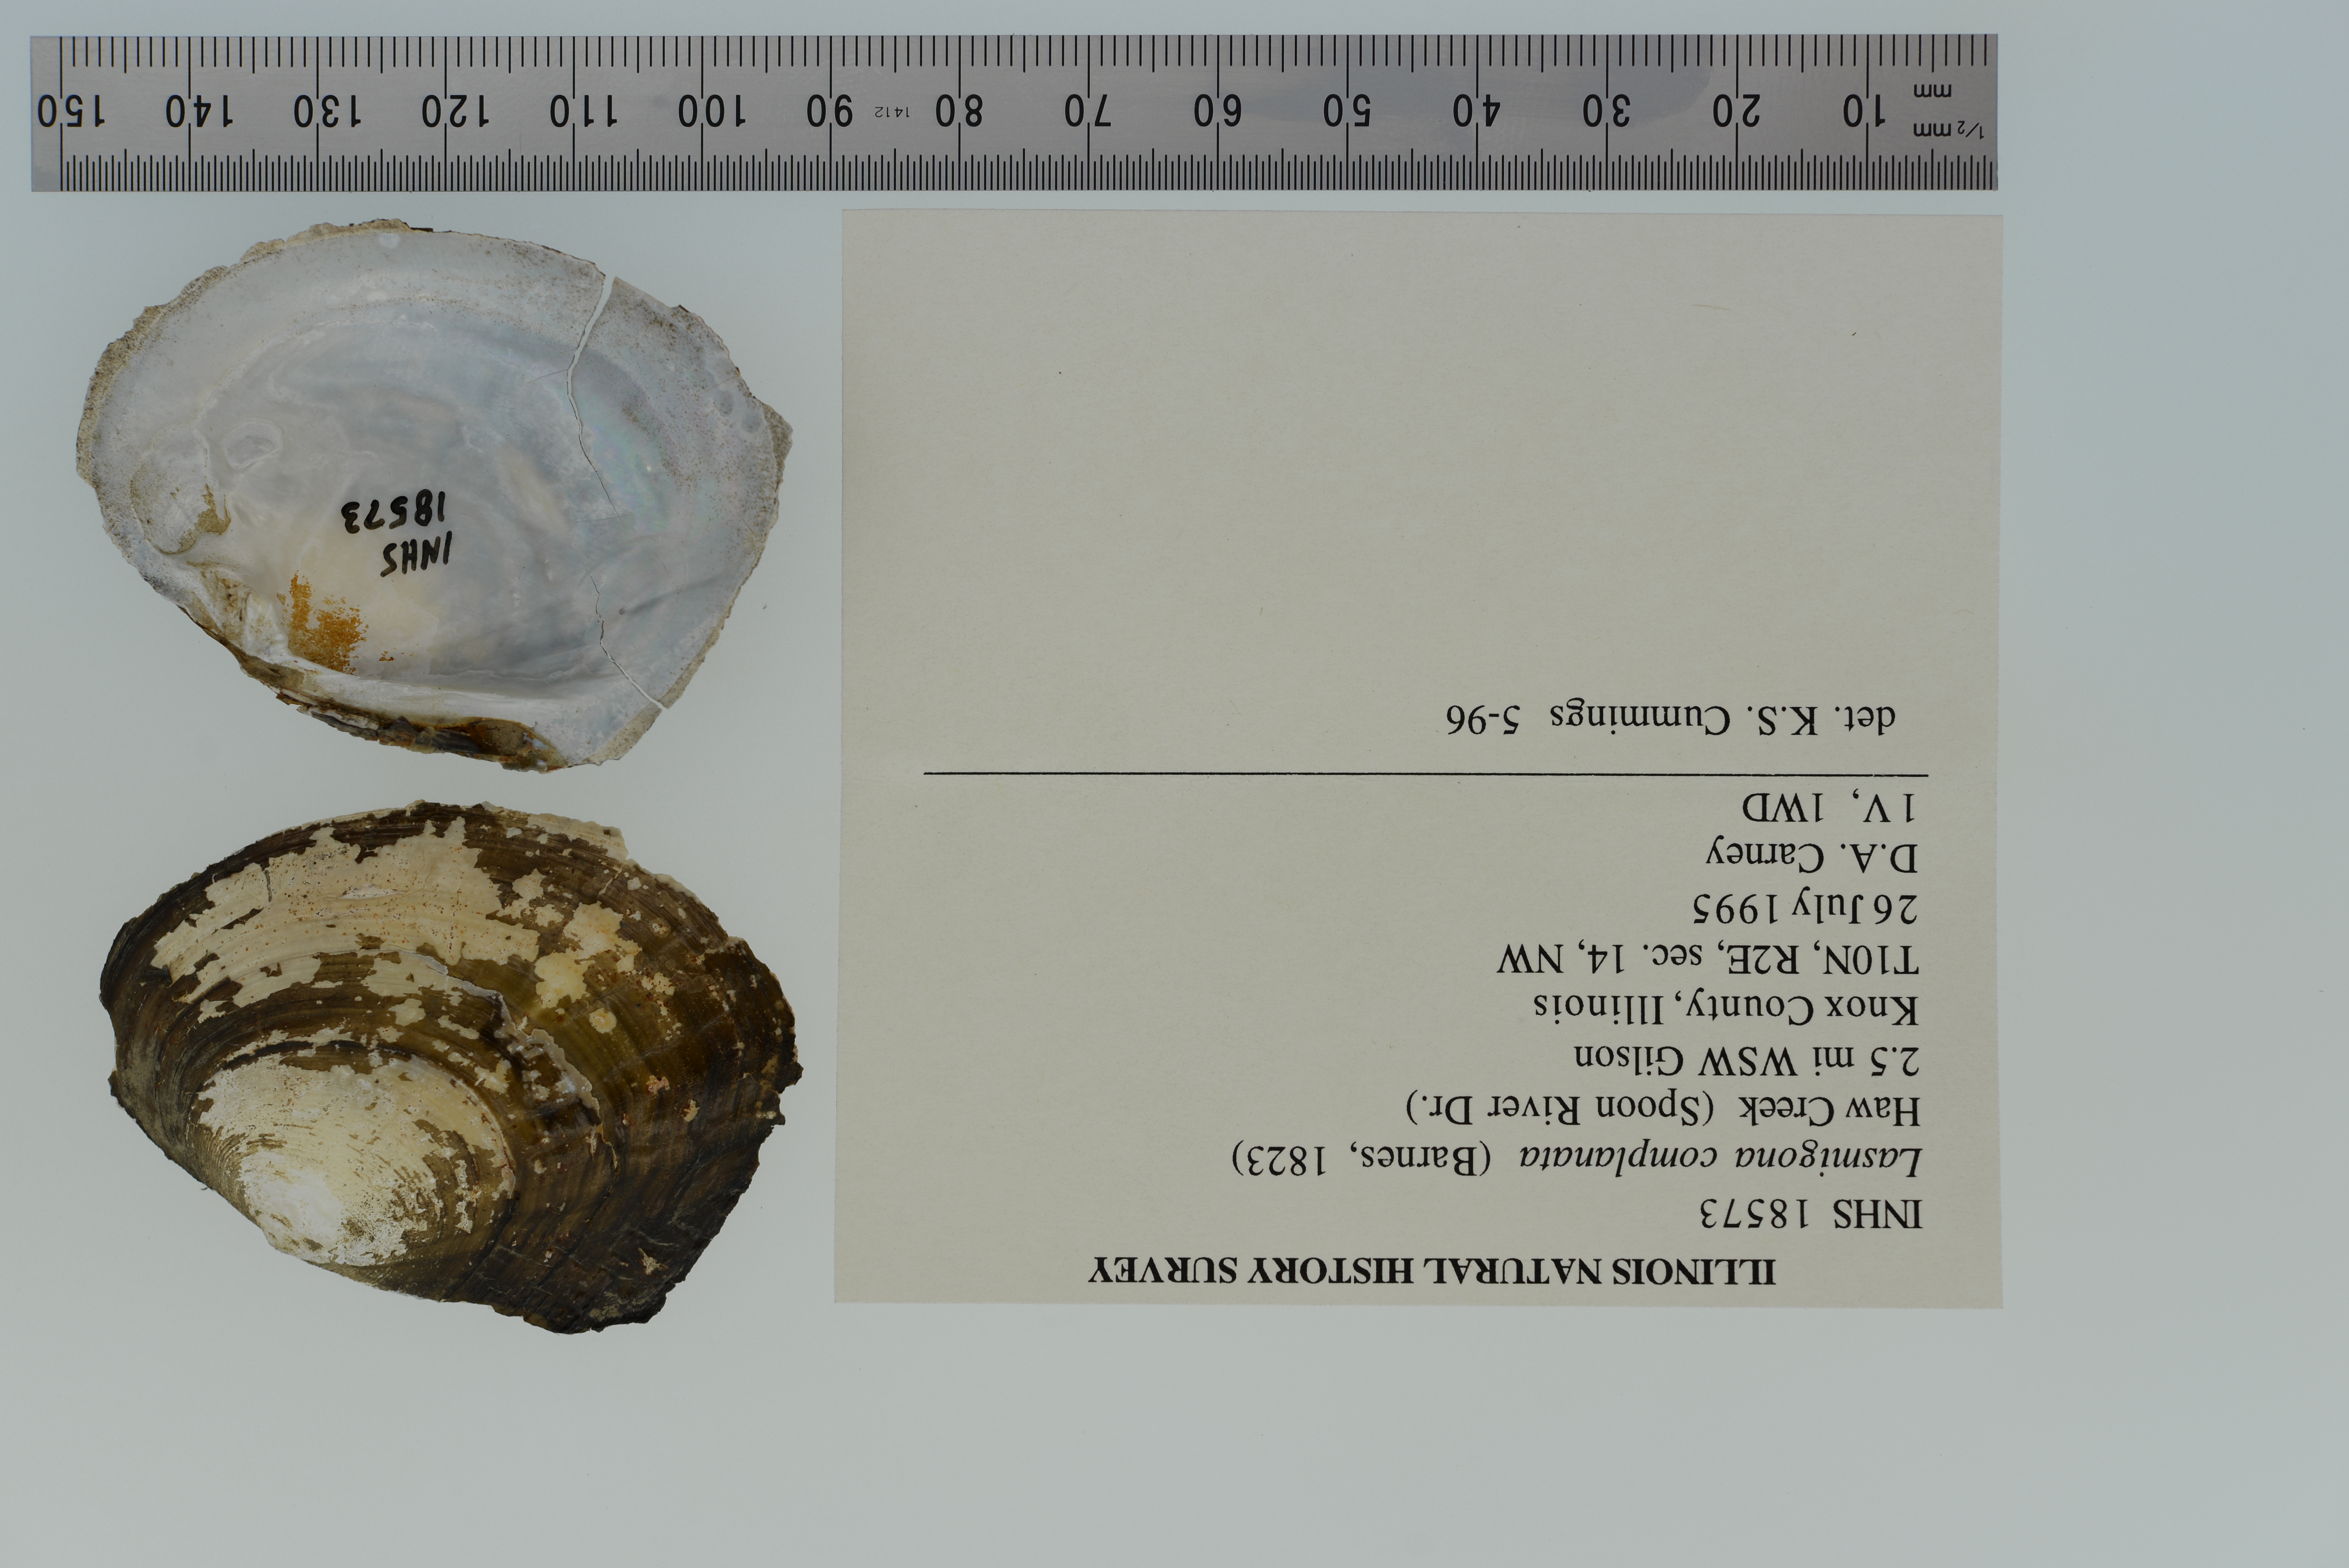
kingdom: Animalia
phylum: Mollusca
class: Bivalvia
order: Unionida
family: Unionidae
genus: Lasmigona
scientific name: Lasmigona complanata
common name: White heelsplitter
